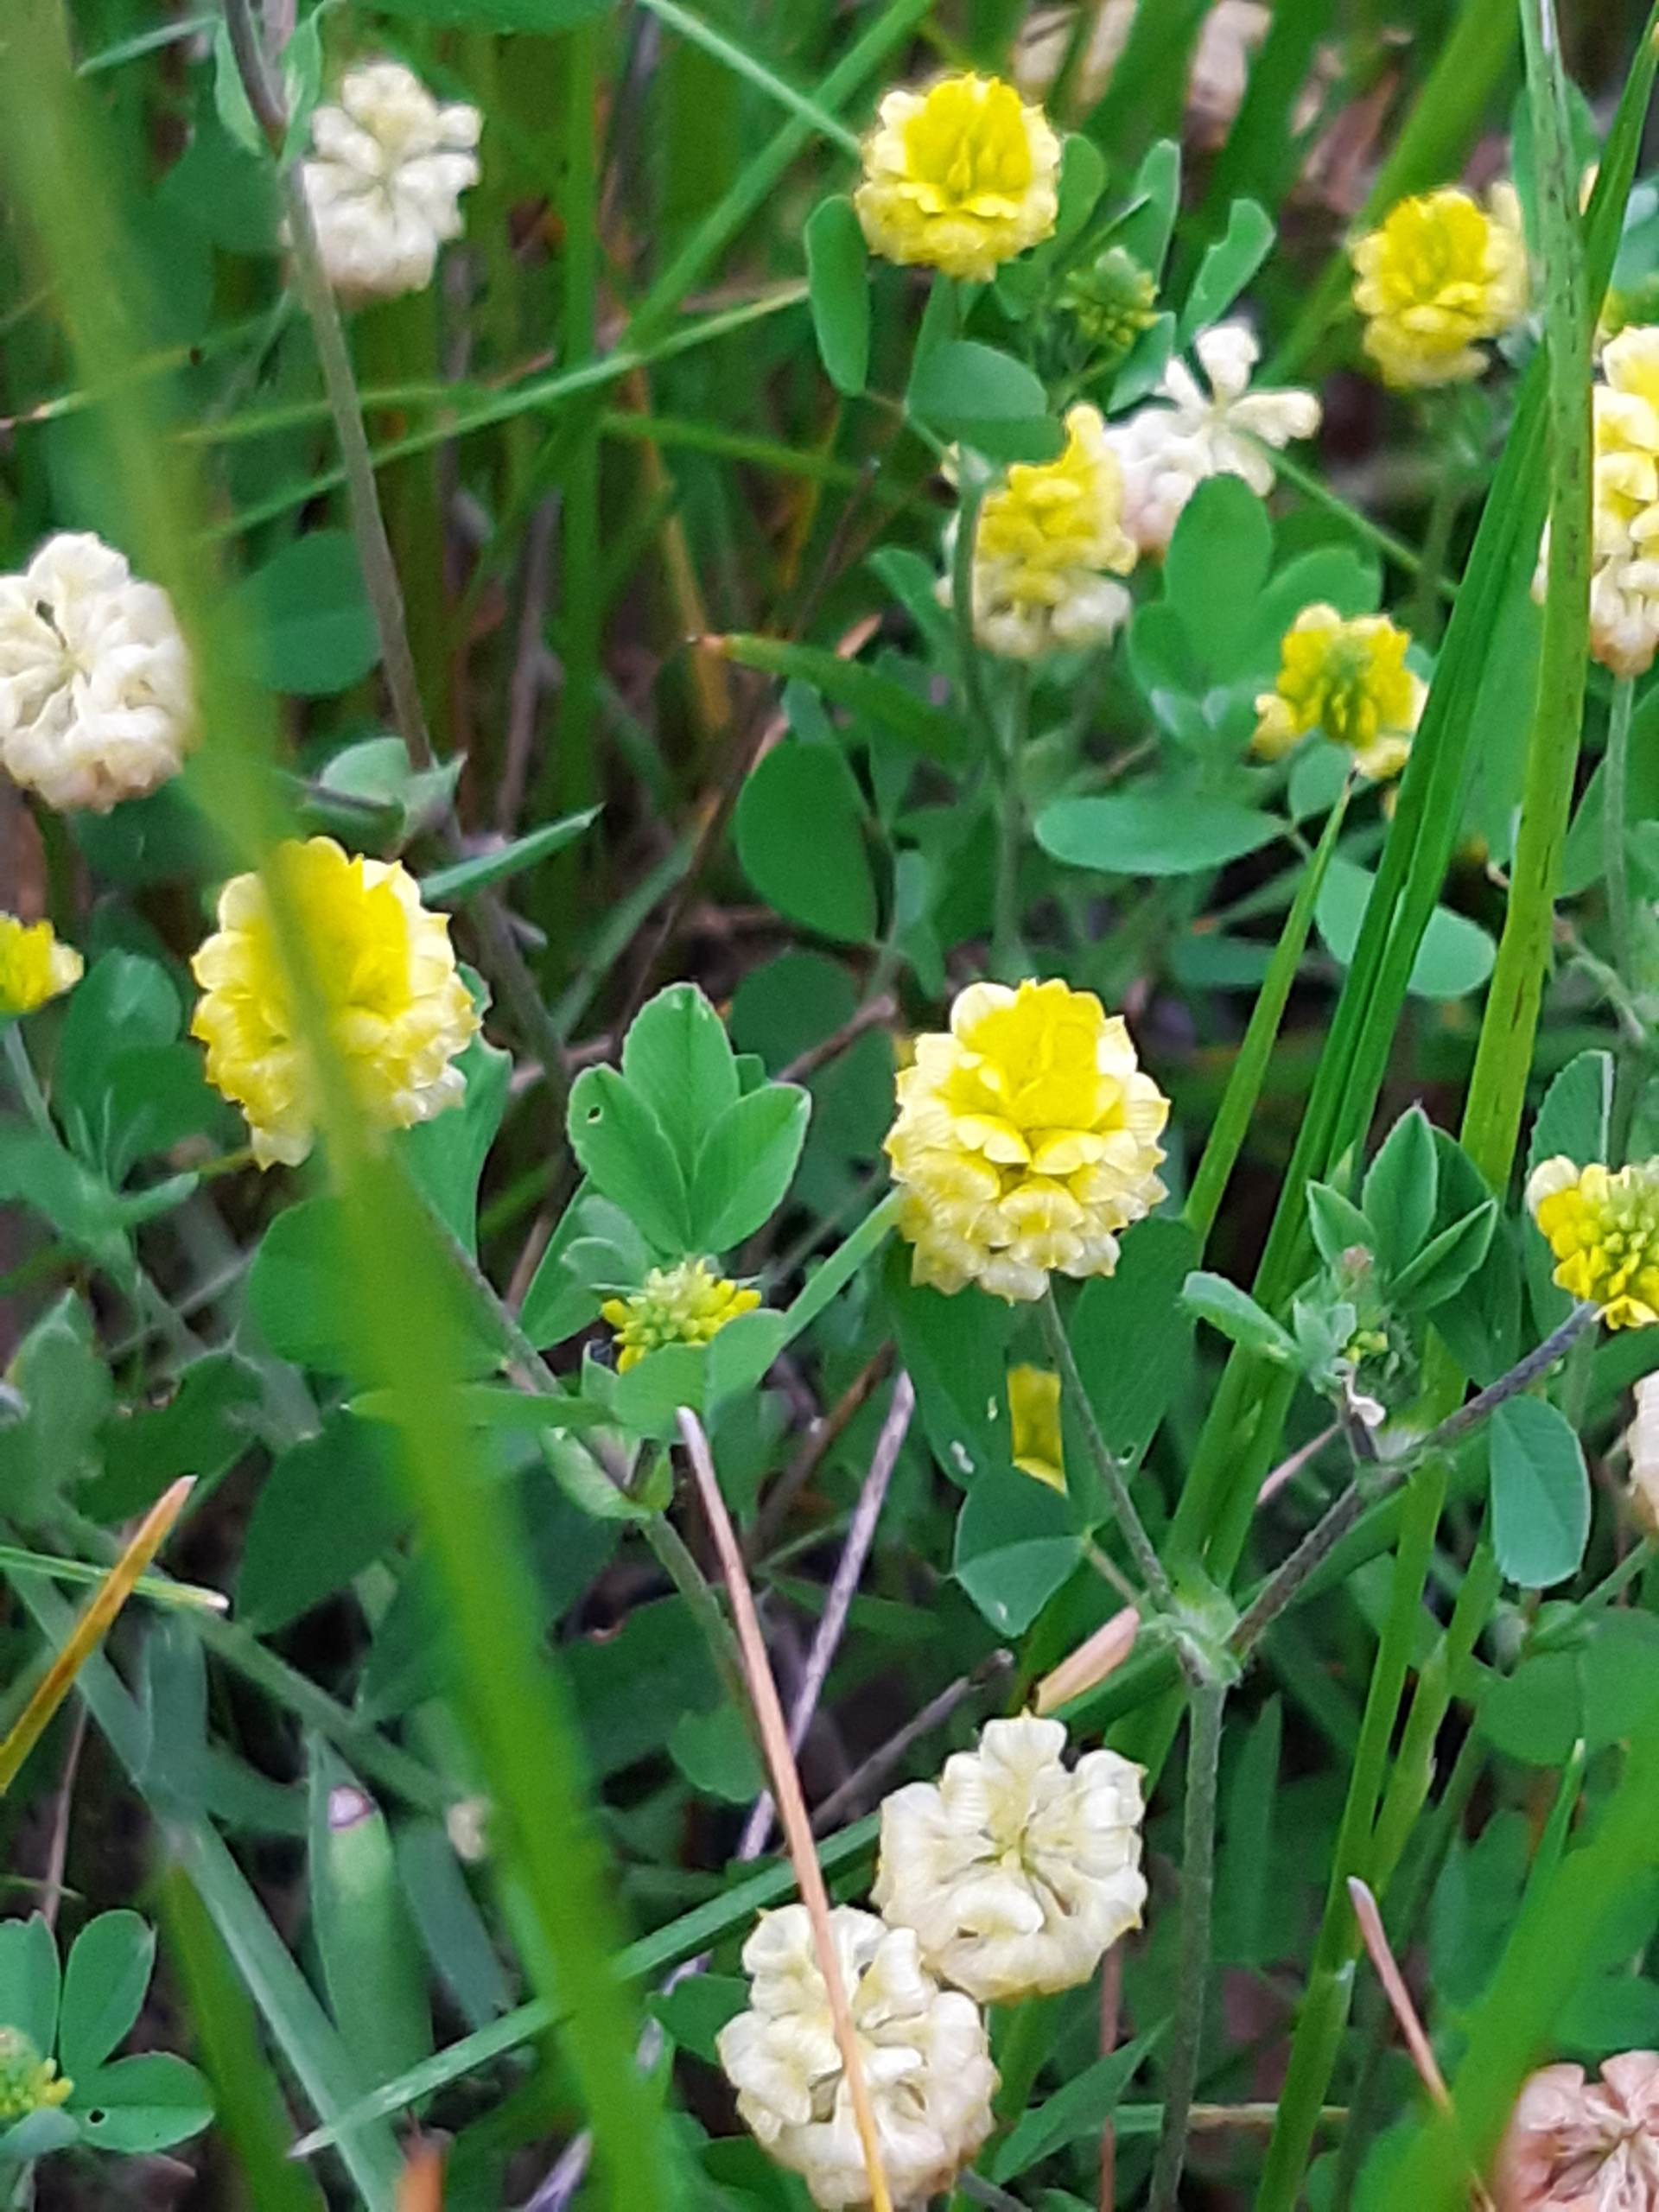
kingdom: Plantae
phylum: Tracheophyta
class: Magnoliopsida
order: Fabales
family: Fabaceae
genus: Trifolium
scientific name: Trifolium campestre
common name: Gul kløver
